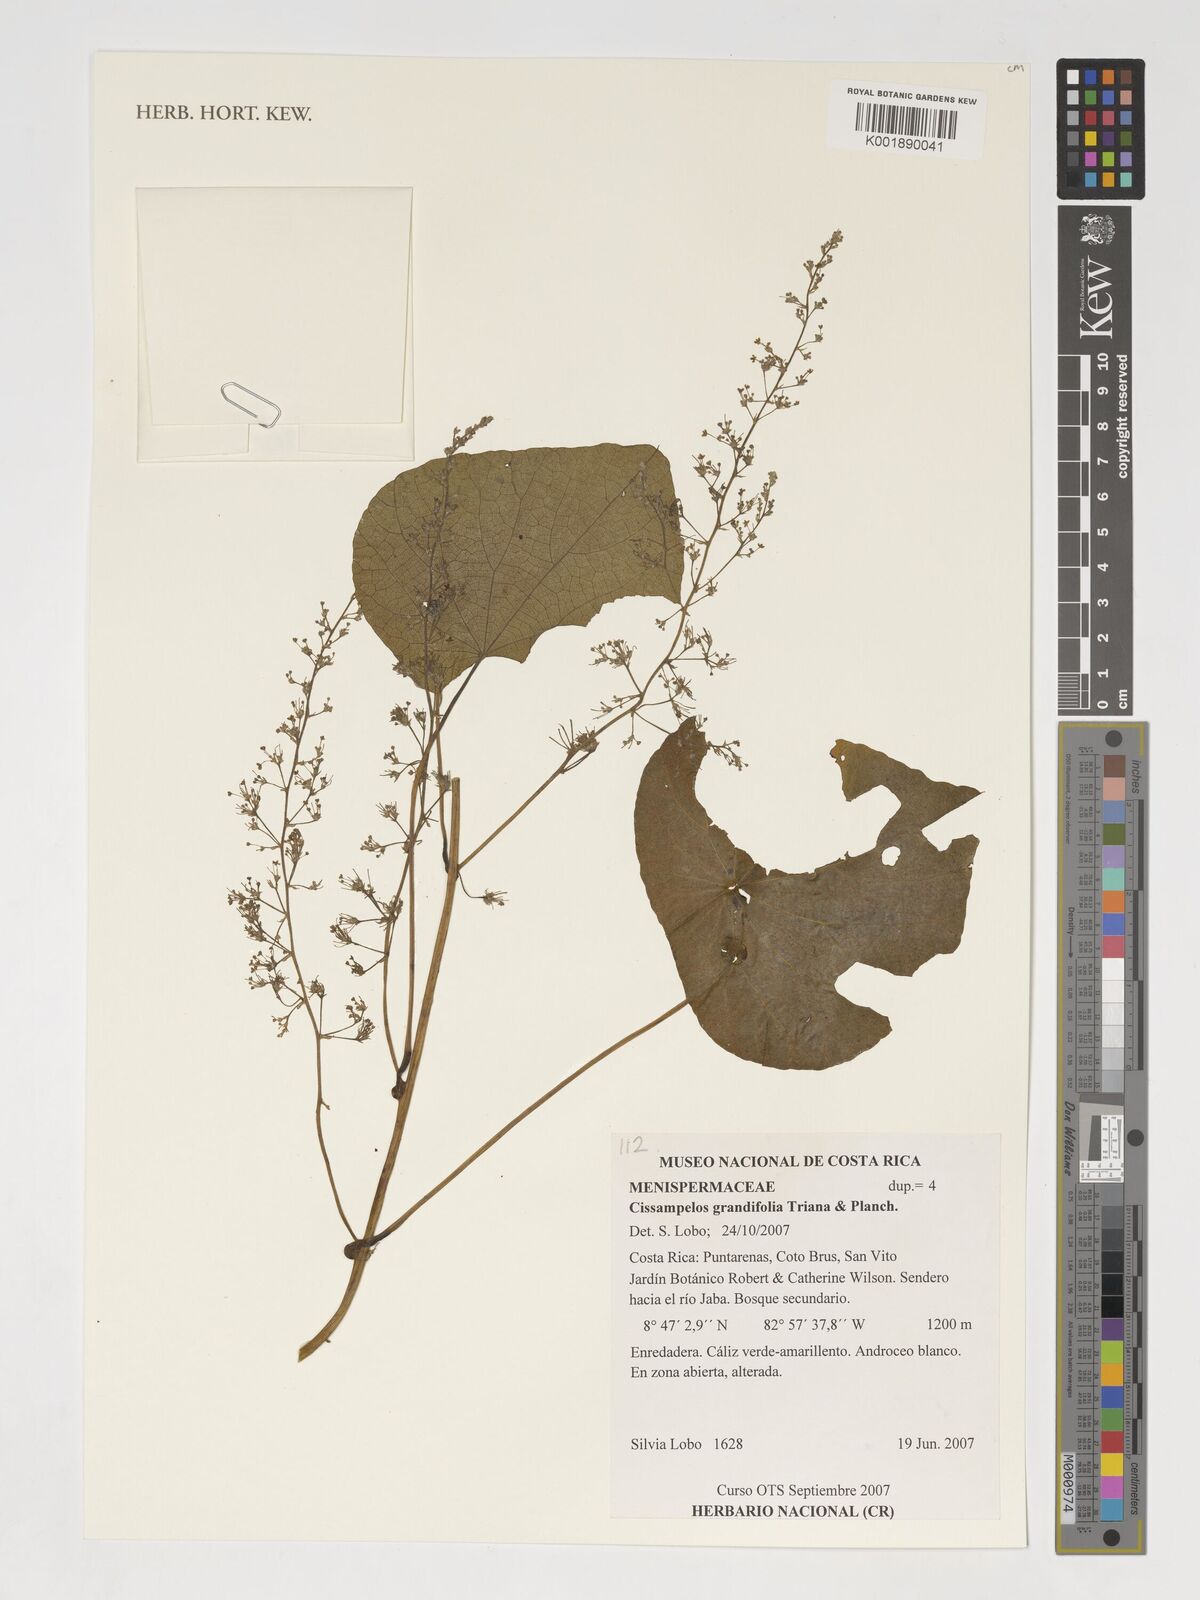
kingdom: Plantae
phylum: Tracheophyta
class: Magnoliopsida
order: Ranunculales
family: Menispermaceae
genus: Cissampelos
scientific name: Cissampelos grandifolia
